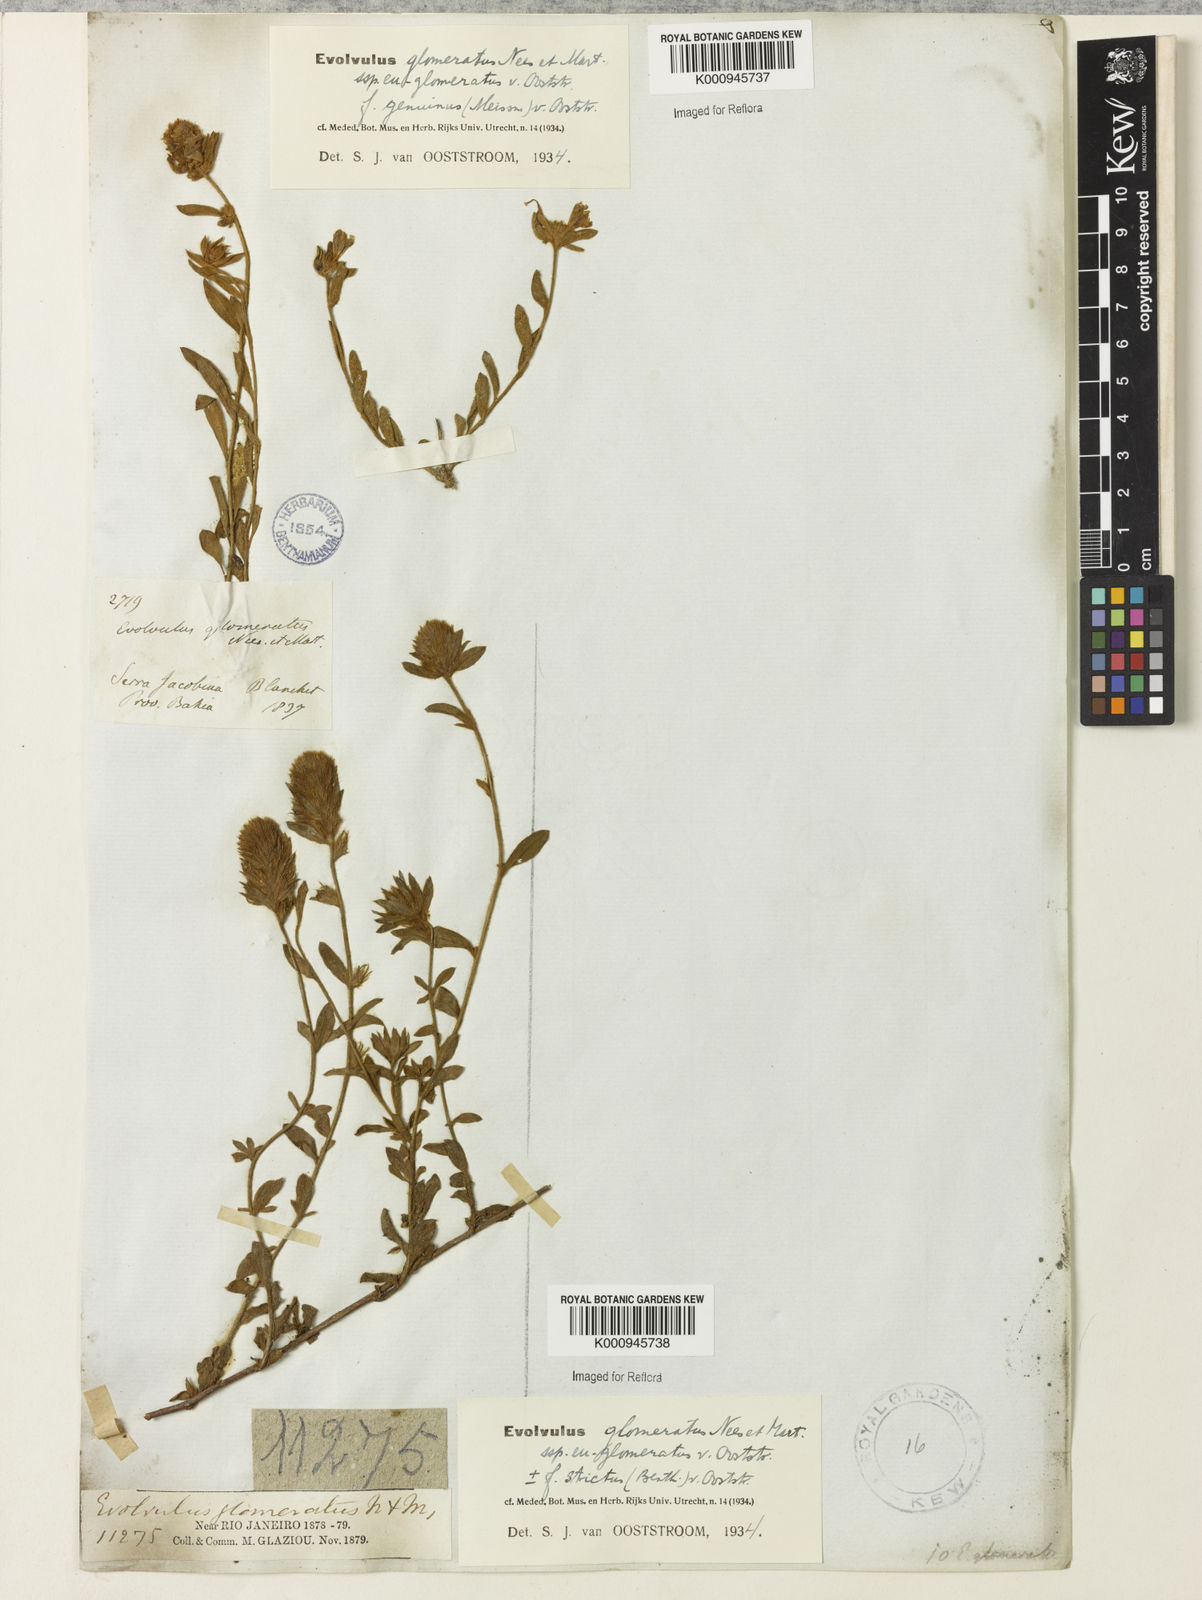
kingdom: Plantae
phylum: Tracheophyta
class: Magnoliopsida
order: Solanales
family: Convolvulaceae
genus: Evolvulus
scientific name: Evolvulus glomeratus
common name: Brazilian dwarf morning-glory
